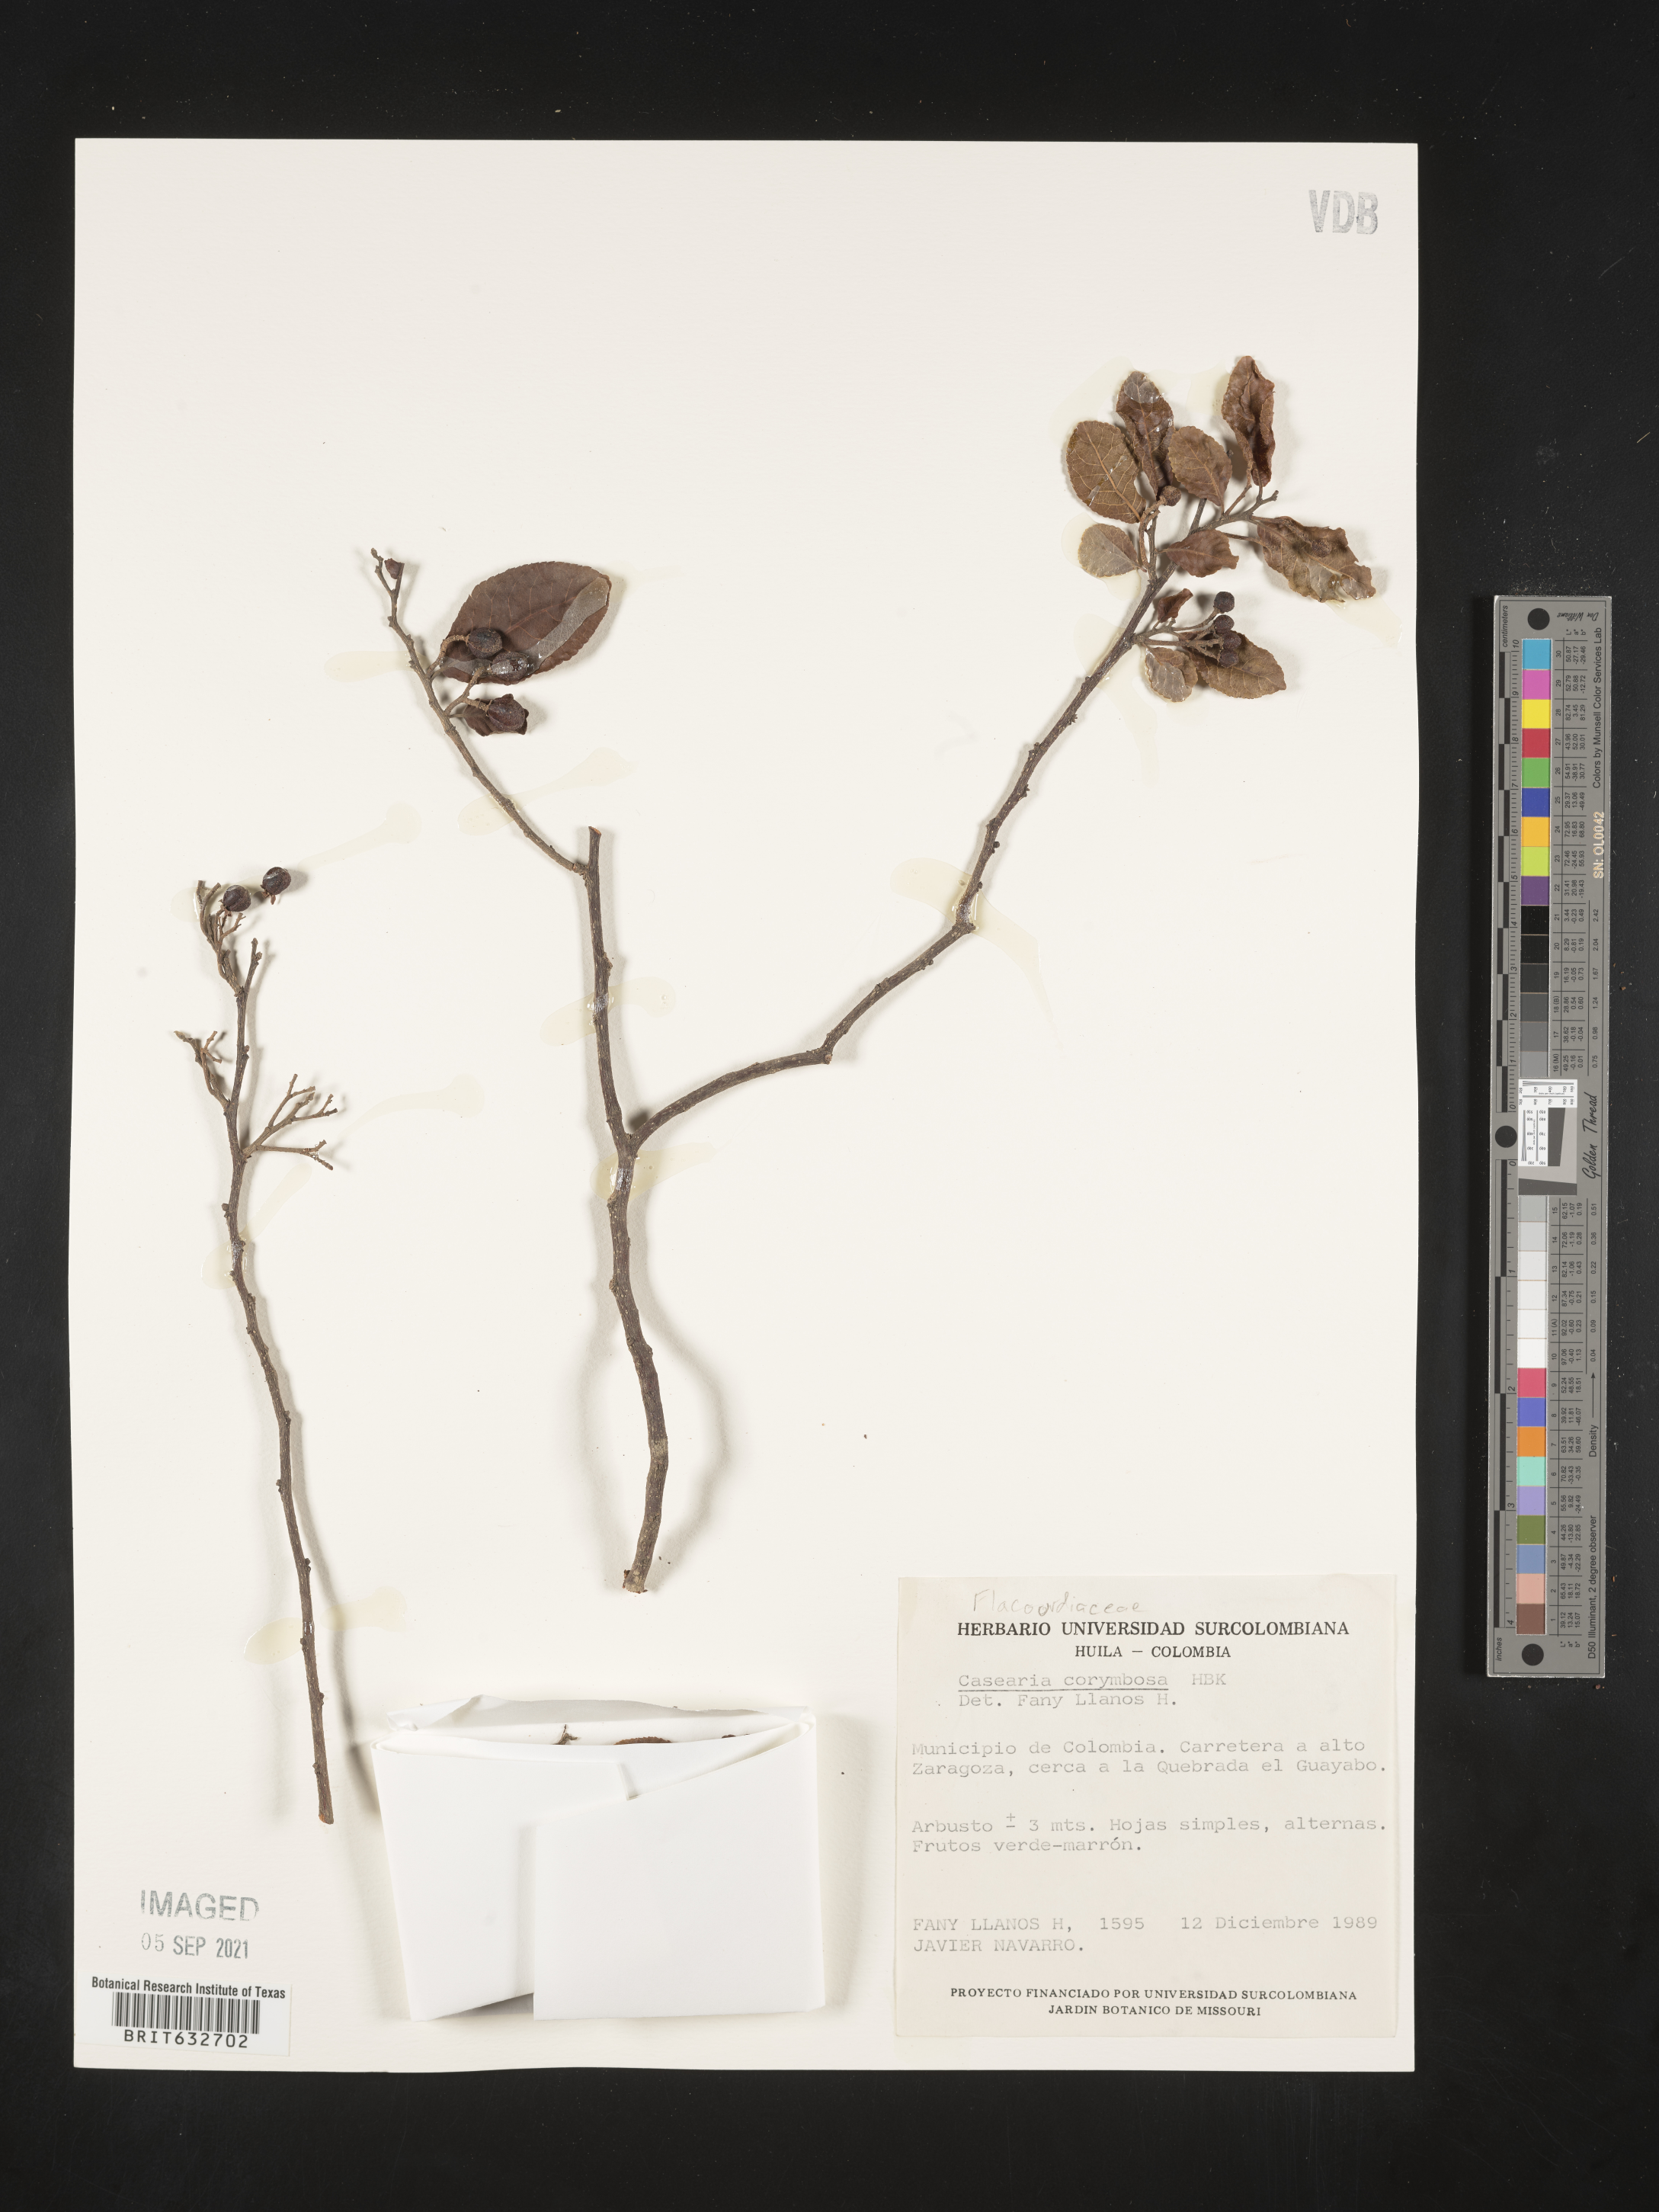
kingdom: Plantae
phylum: Tracheophyta
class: Magnoliopsida
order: Malpighiales
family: Salicaceae
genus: Casearia
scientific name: Casearia
